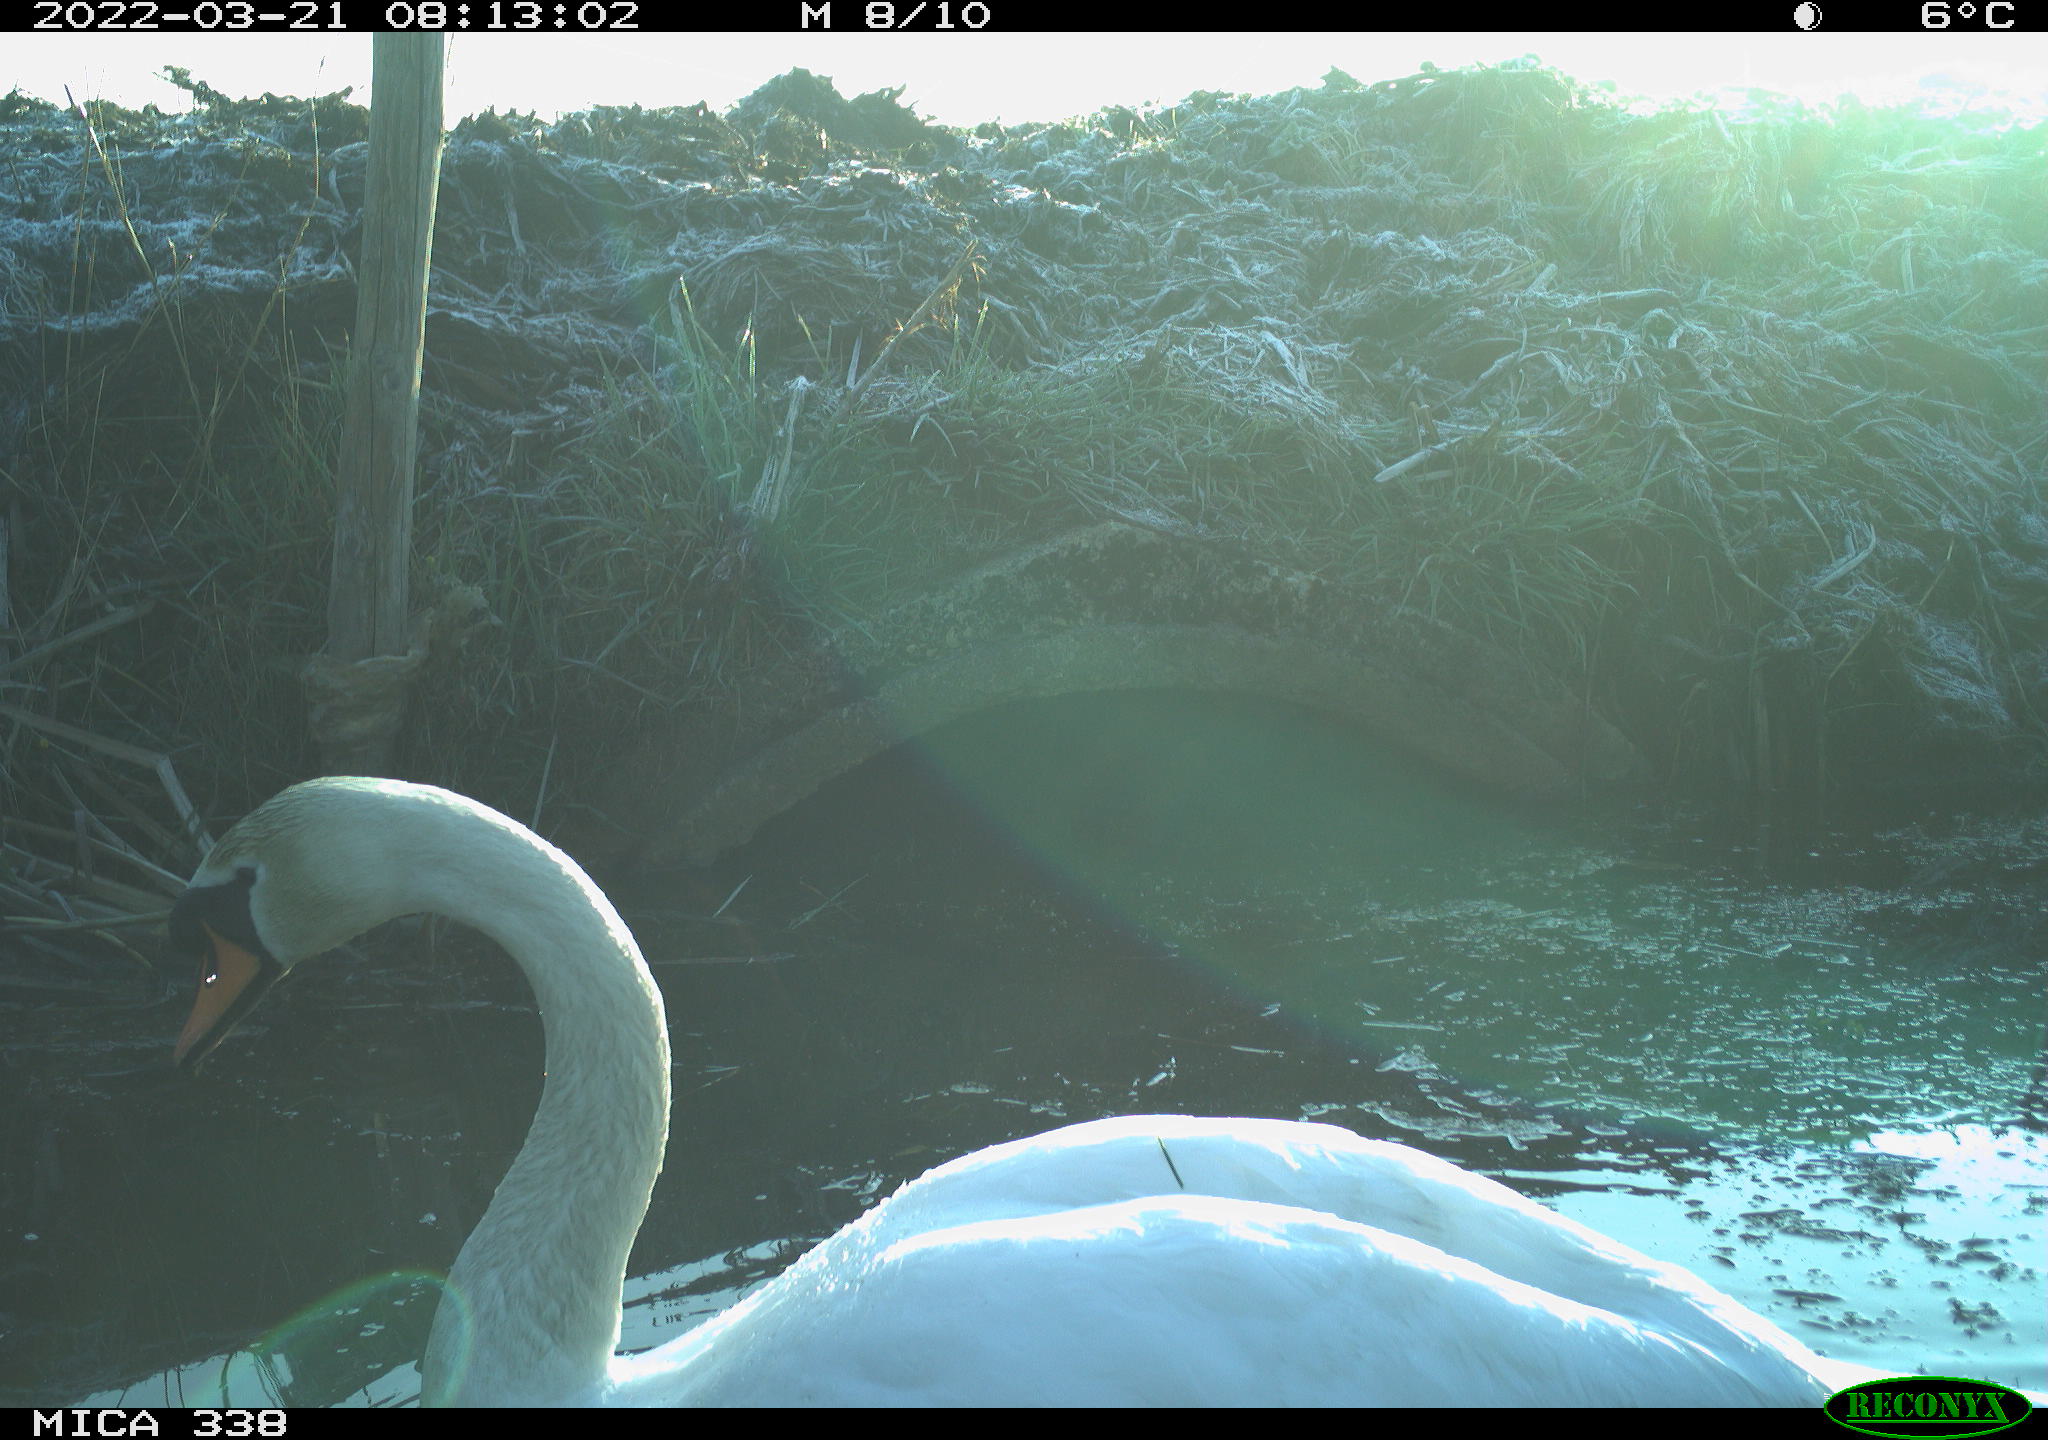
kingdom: Animalia
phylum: Chordata
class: Aves
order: Anseriformes
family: Anatidae
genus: Cygnus
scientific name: Cygnus olor
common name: Mute swan
